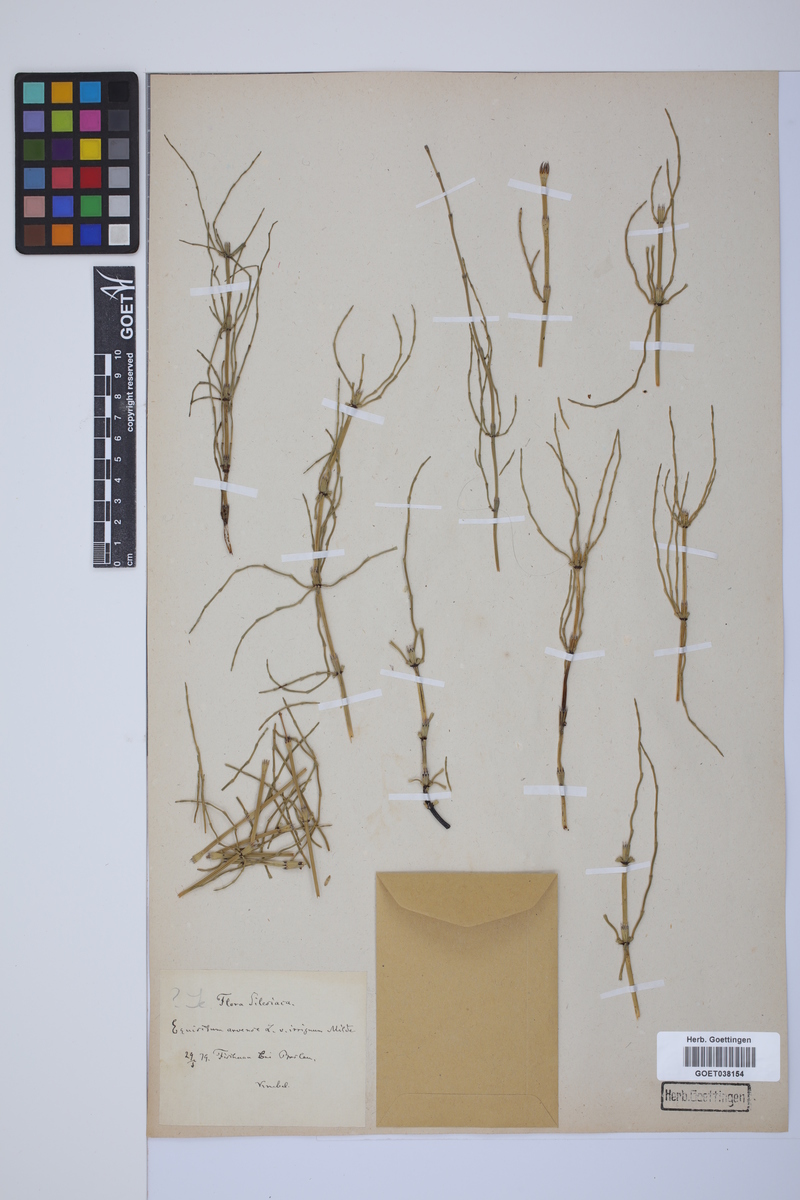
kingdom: Plantae
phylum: Tracheophyta
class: Polypodiopsida
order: Equisetales
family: Equisetaceae
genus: Equisetum
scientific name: Equisetum arvense
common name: Field horsetail
